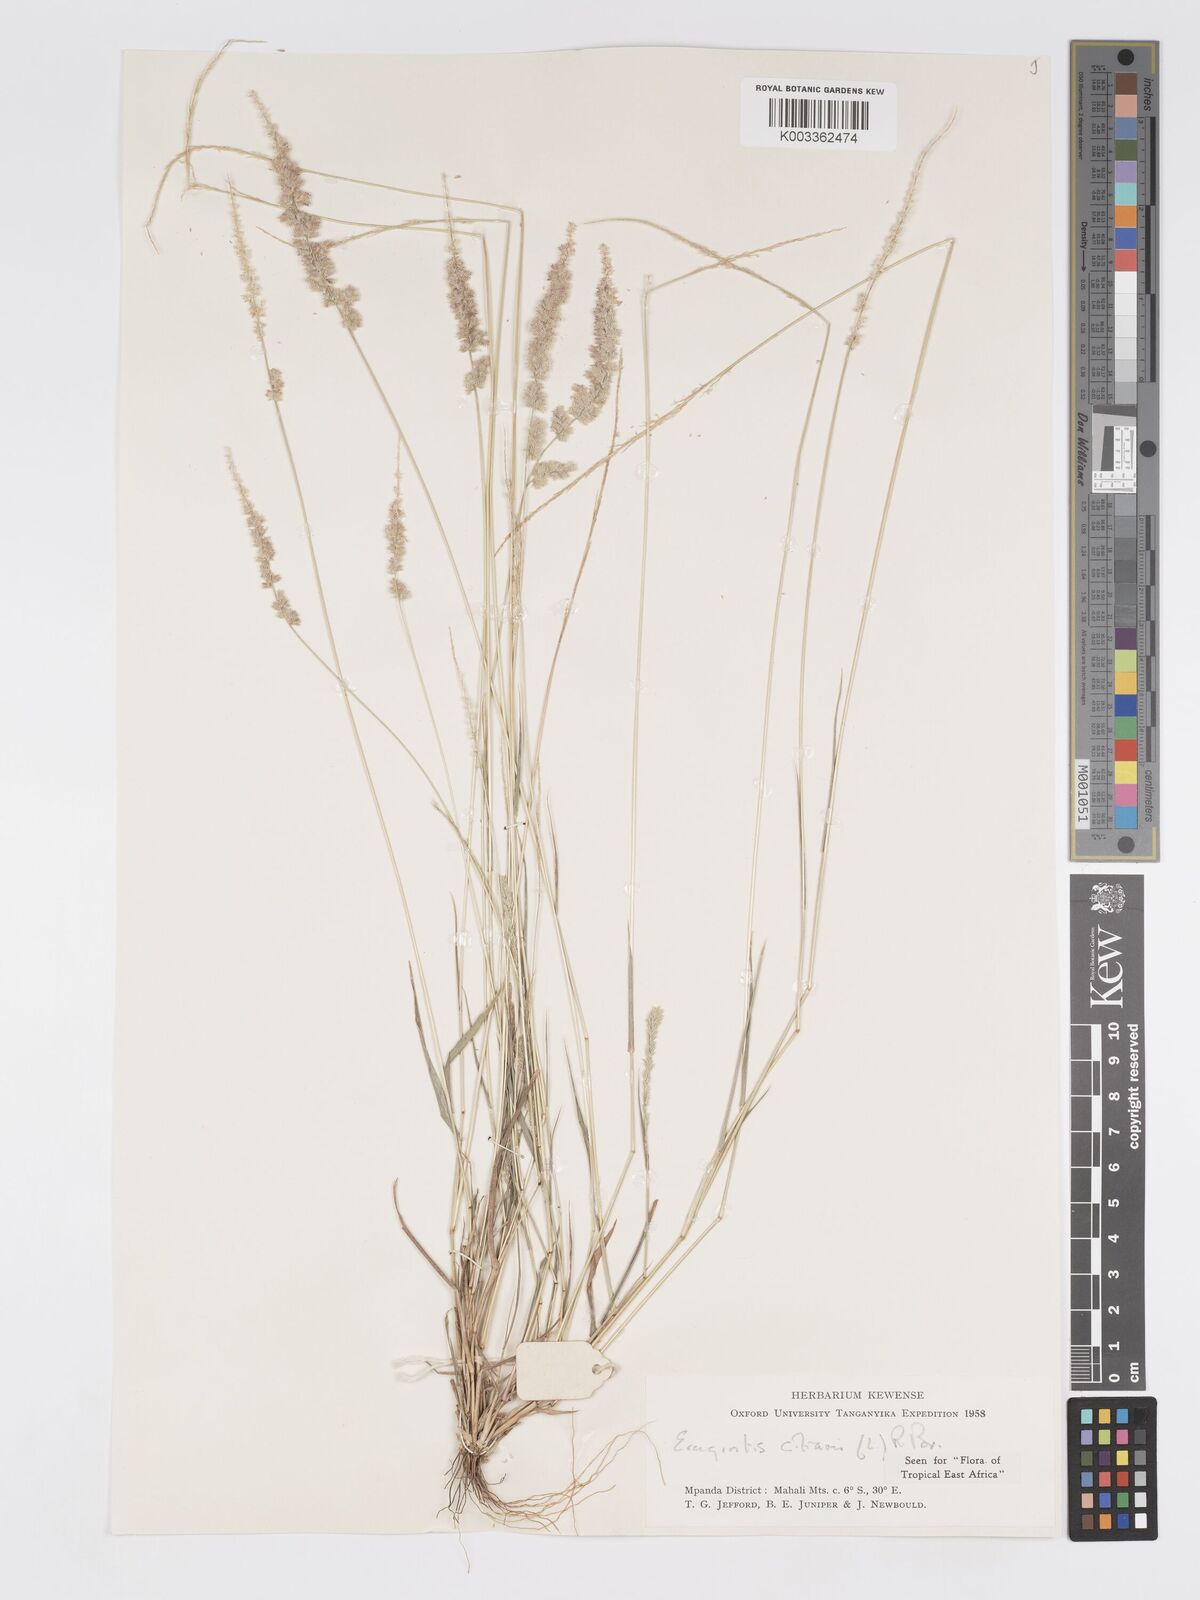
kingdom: Plantae
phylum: Tracheophyta
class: Liliopsida
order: Poales
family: Poaceae
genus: Eragrostis
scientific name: Eragrostis ciliaris
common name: Gophertail lovegrass
